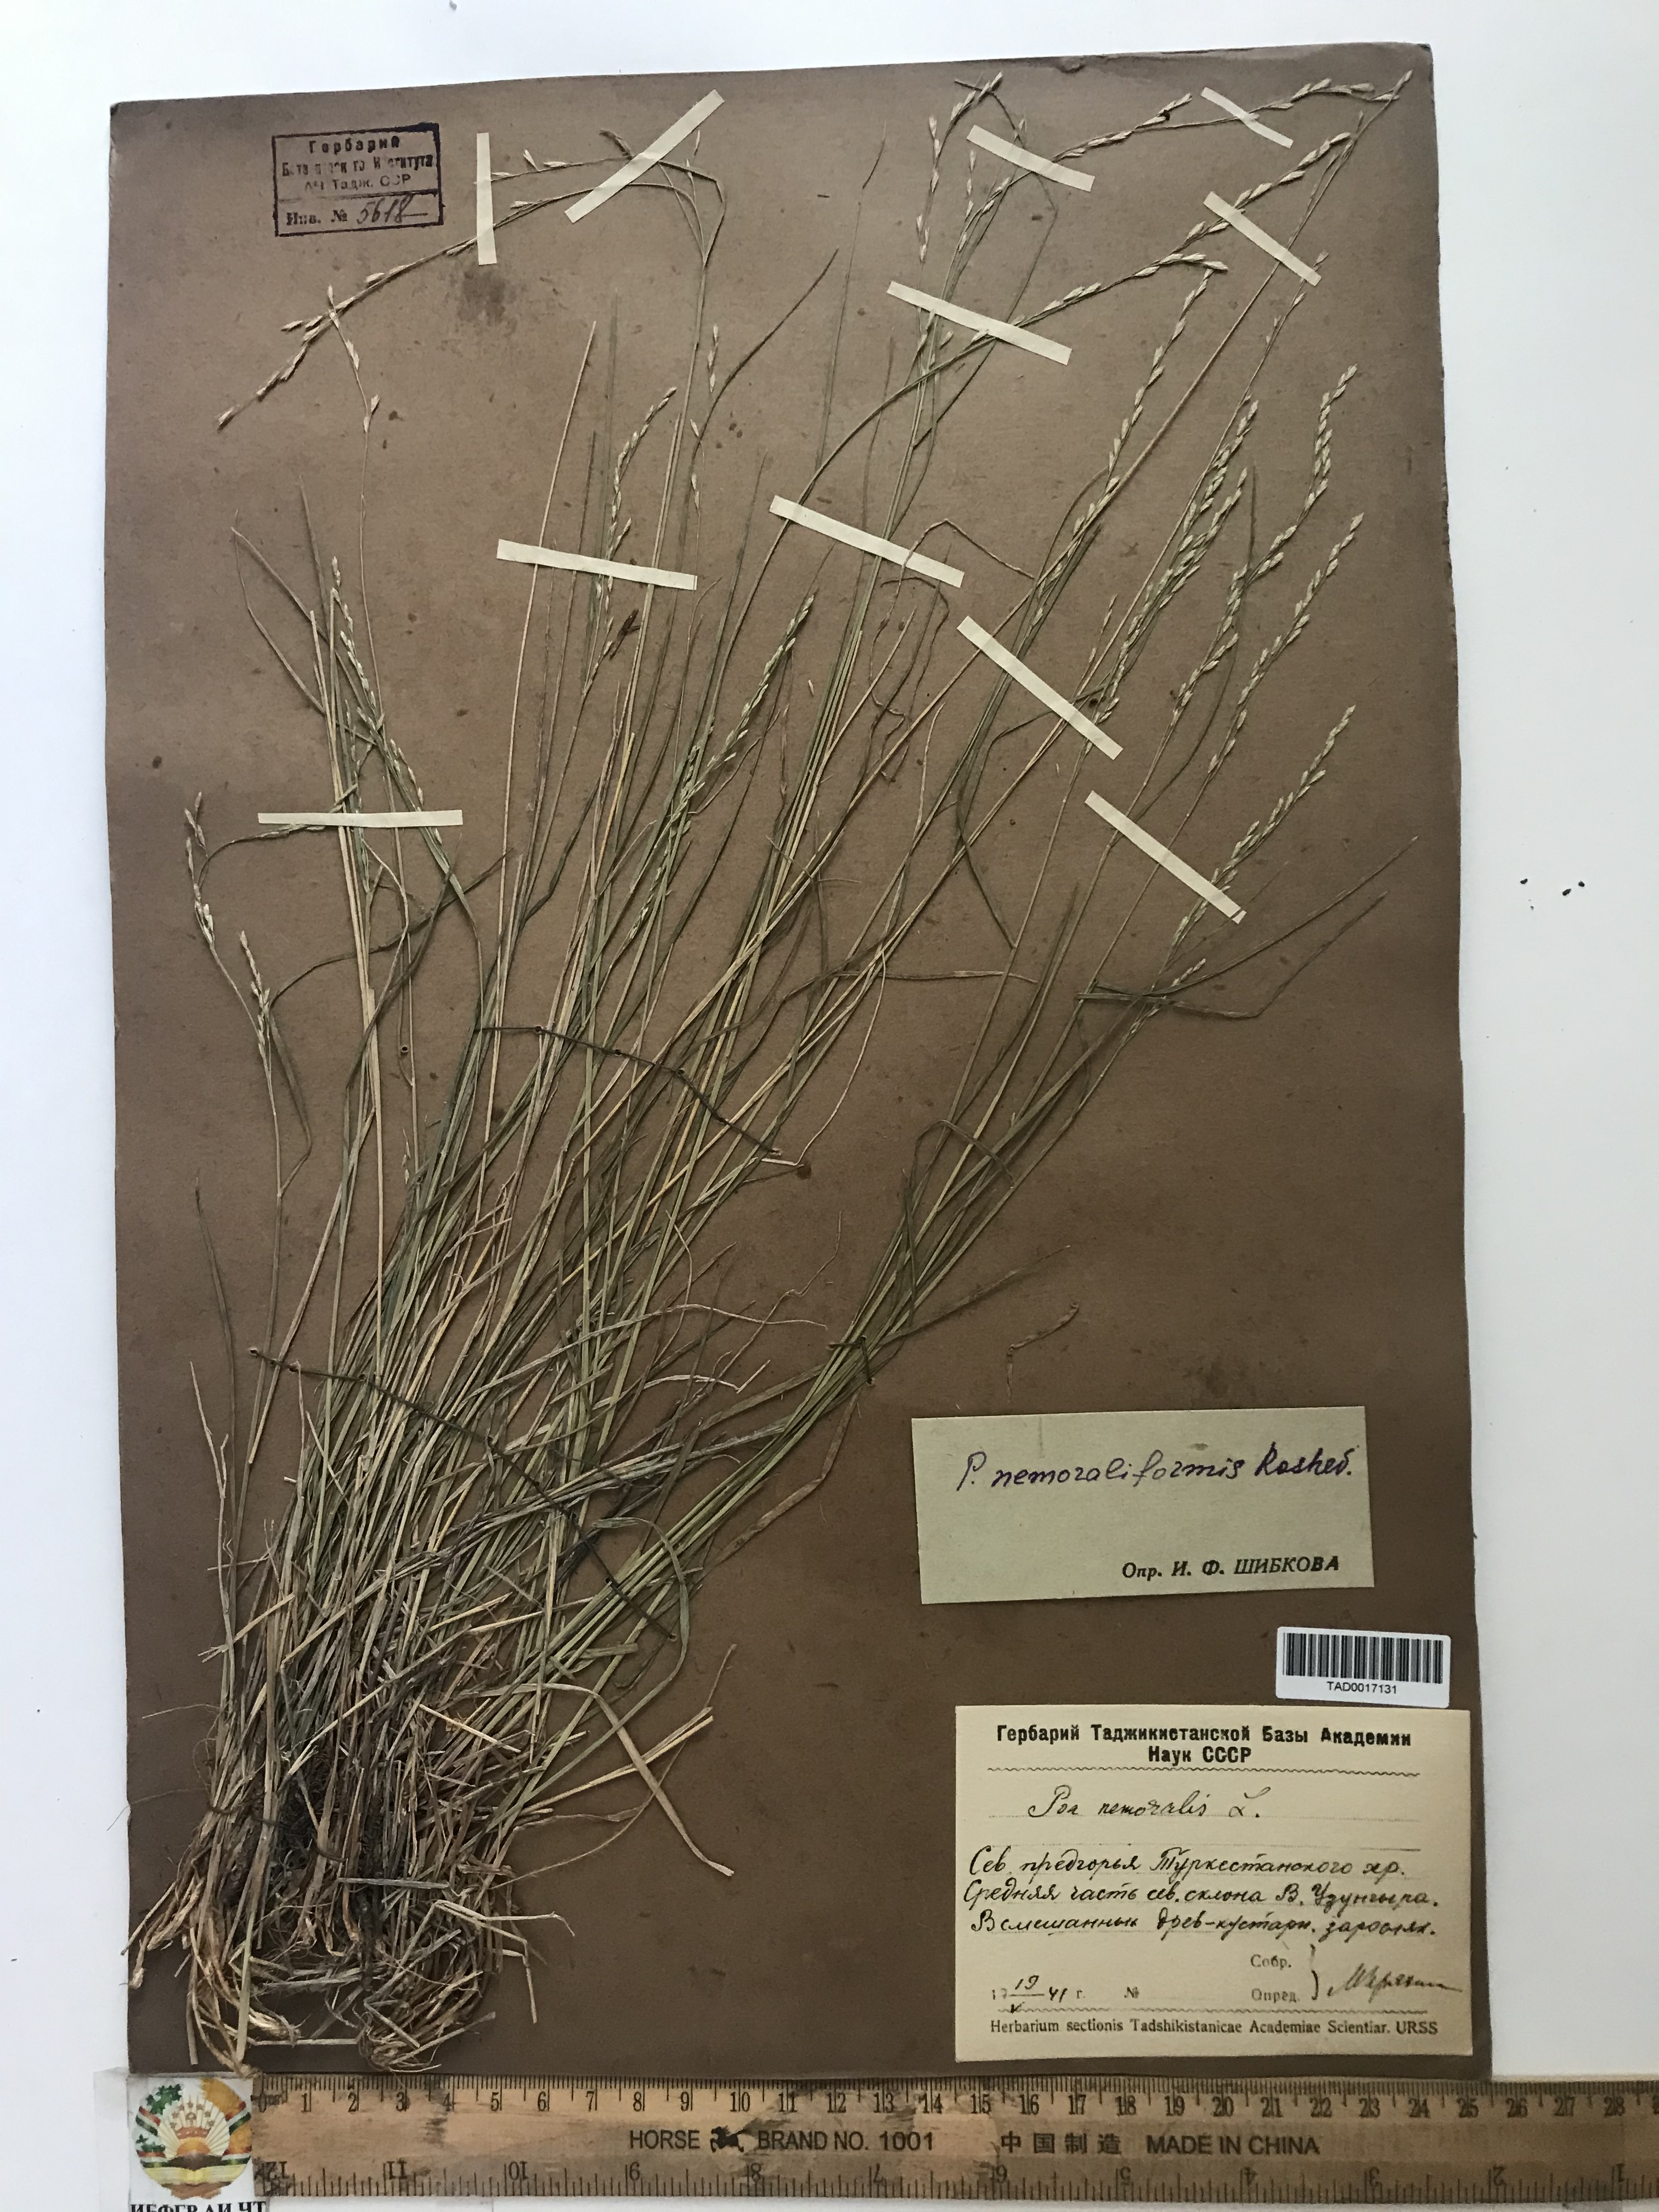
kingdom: Plantae
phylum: Tracheophyta
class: Liliopsida
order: Poales
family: Poaceae
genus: Poa
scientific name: Poa urssulensis
